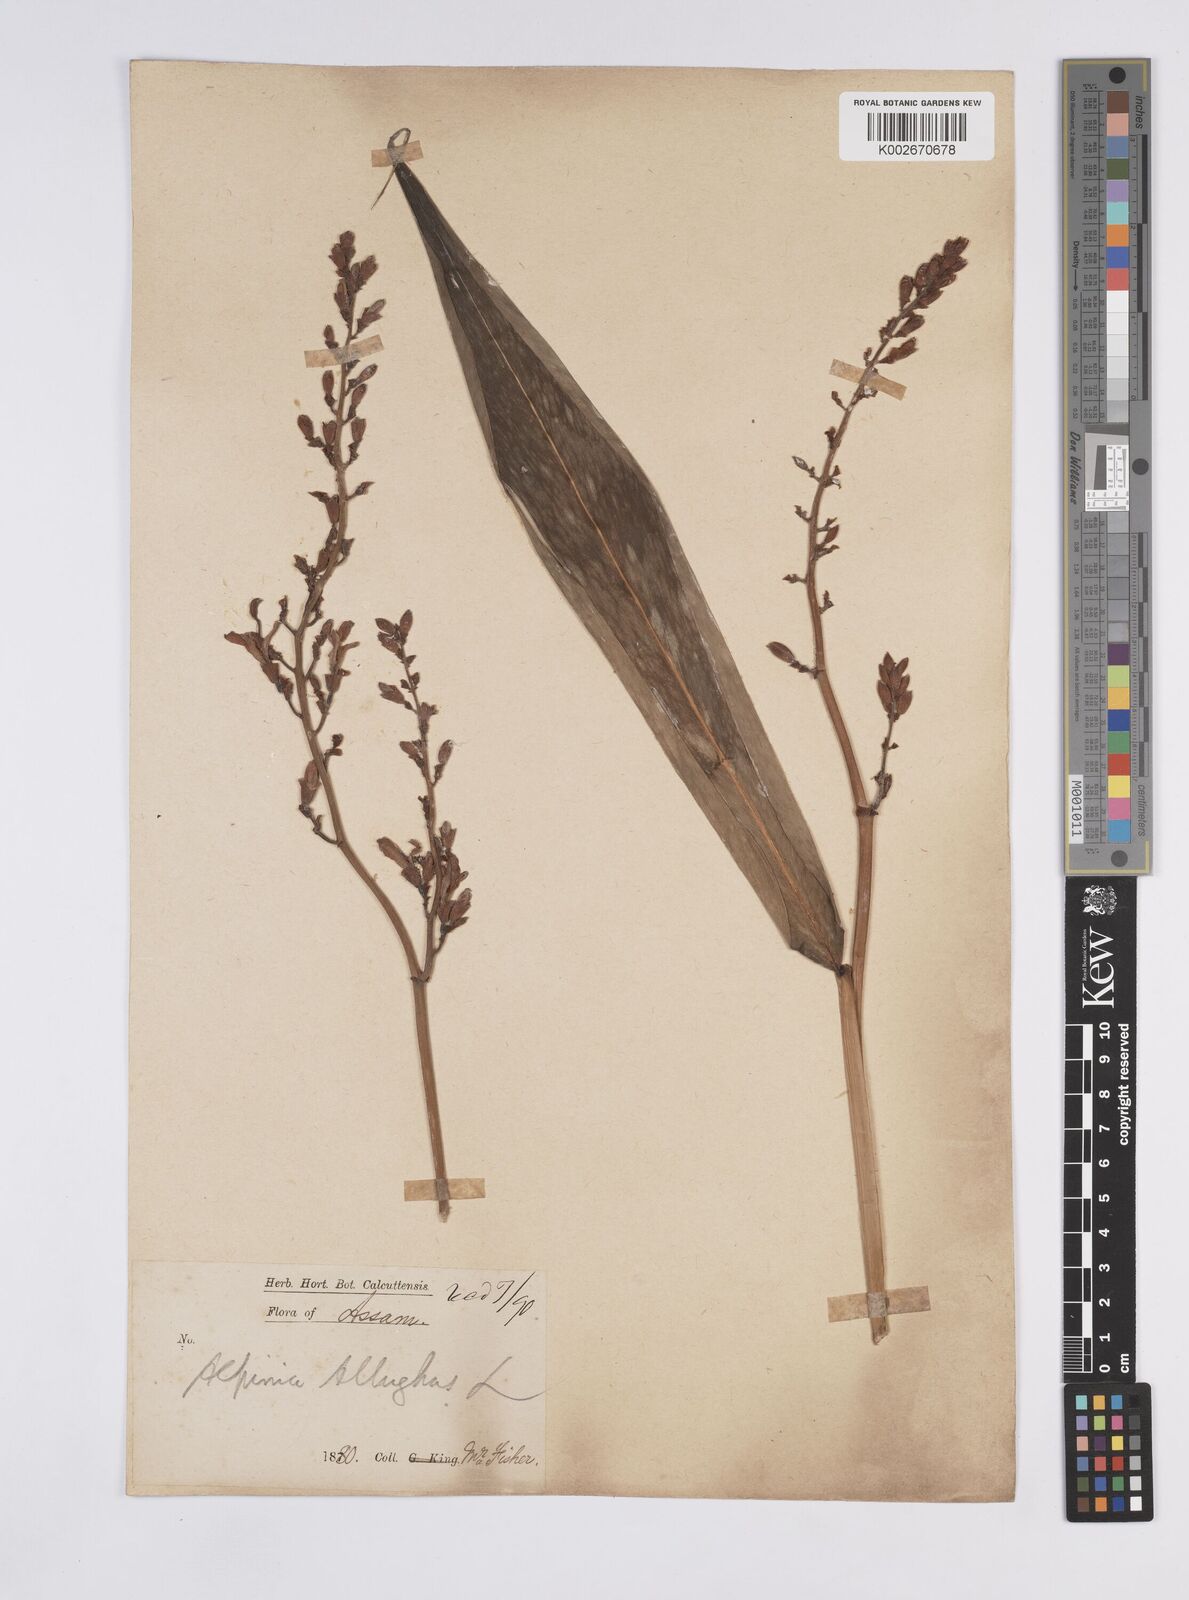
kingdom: Plantae
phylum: Tracheophyta
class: Liliopsida
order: Zingiberales
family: Zingiberaceae
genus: Alpinia
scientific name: Alpinia nigra
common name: Black fruited galanga
